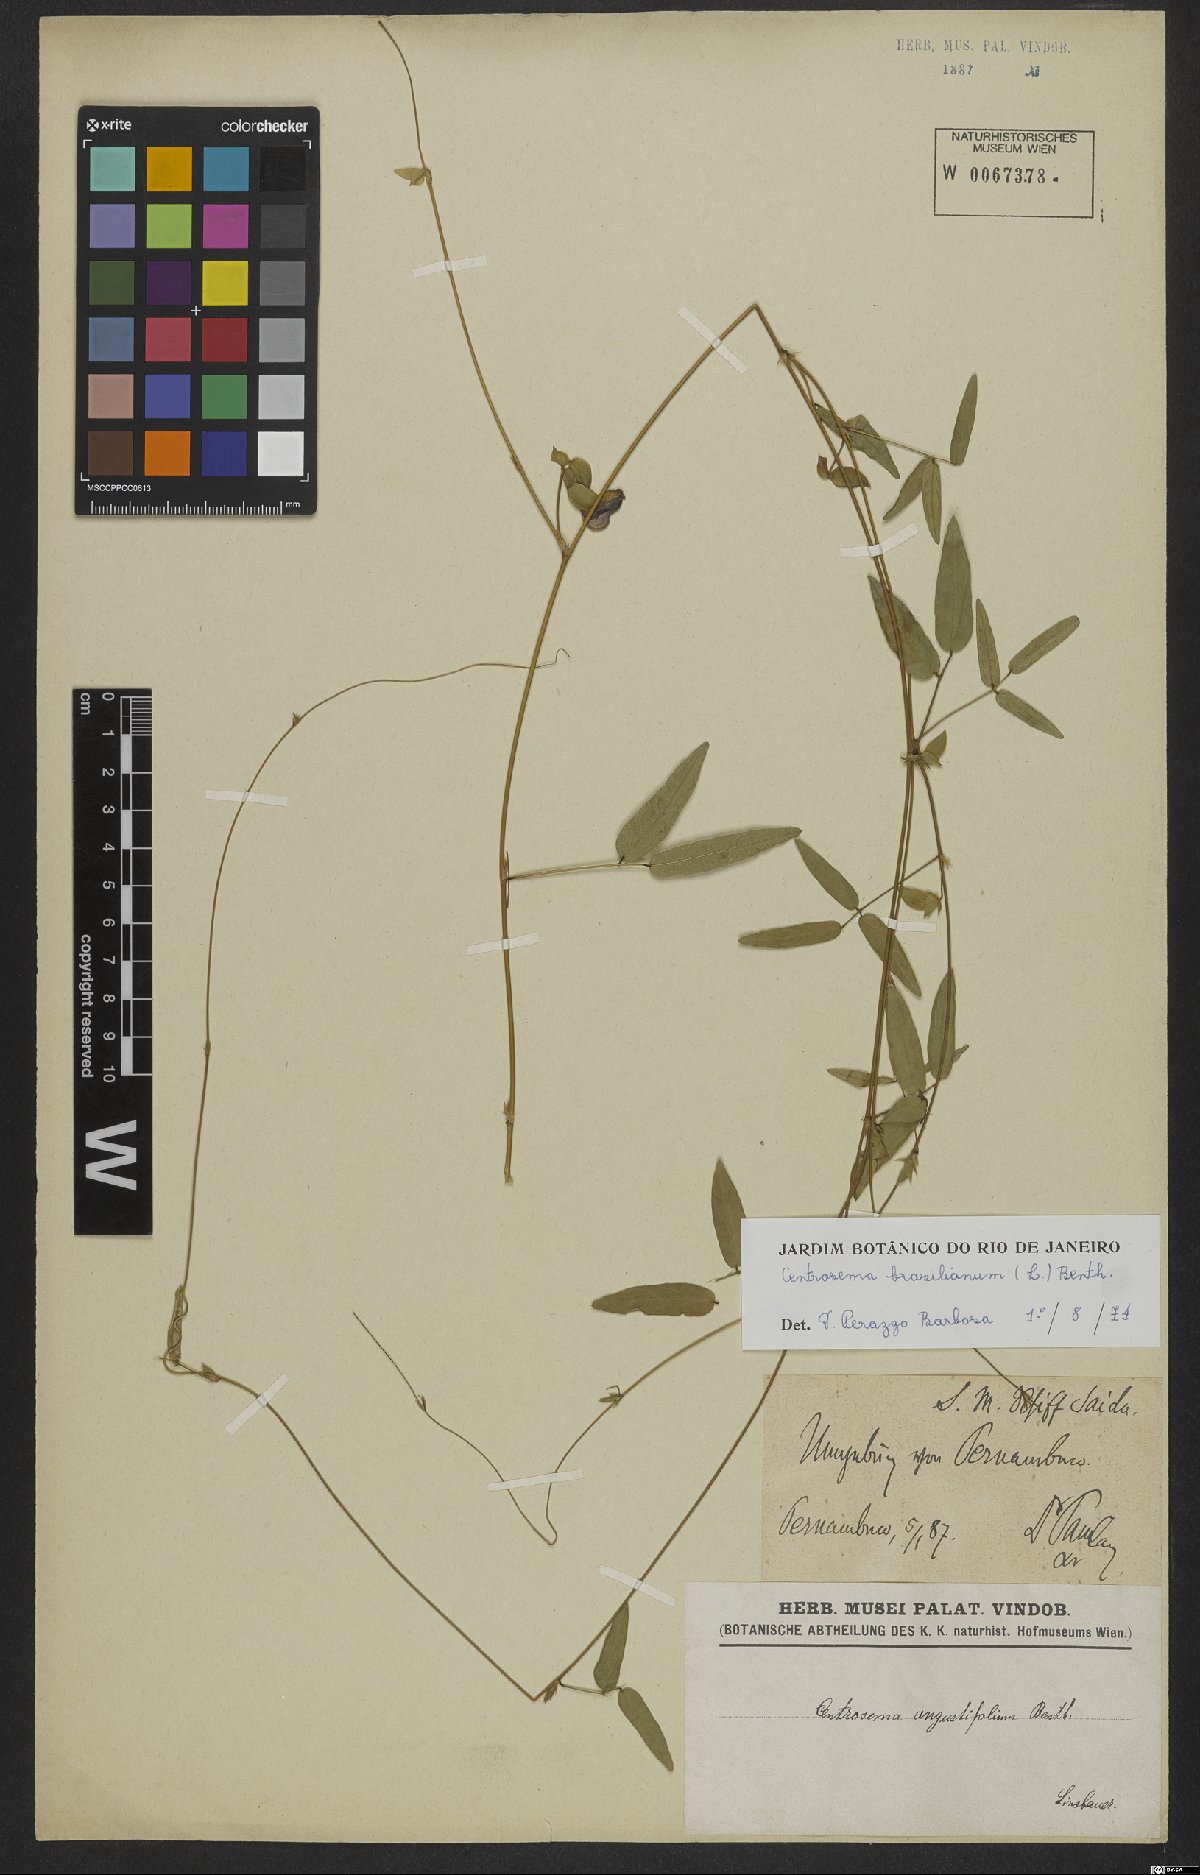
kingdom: Plantae
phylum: Tracheophyta
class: Magnoliopsida
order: Fabales
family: Fabaceae
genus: Centrosema
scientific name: Centrosema brasilianum
